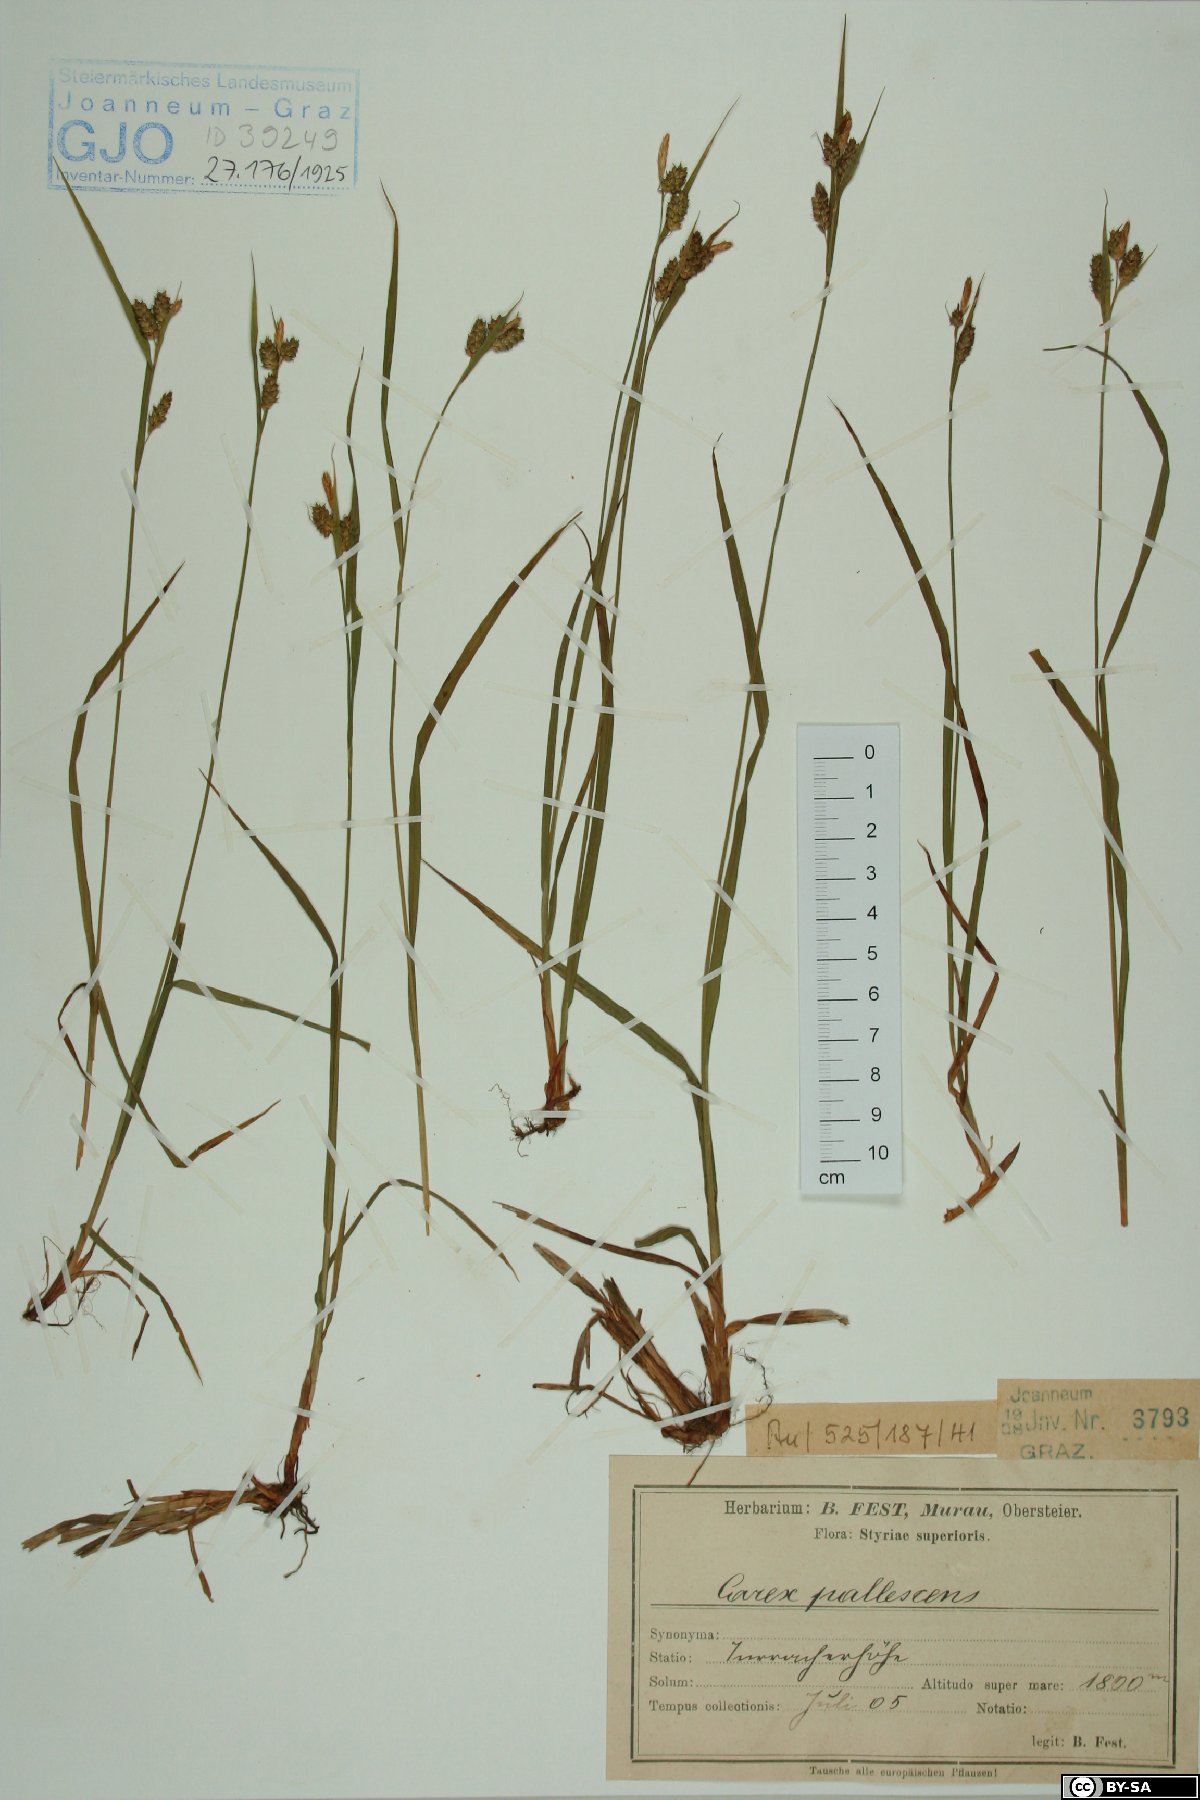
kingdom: Plantae
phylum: Tracheophyta
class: Liliopsida
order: Poales
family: Cyperaceae
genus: Carex
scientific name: Carex pallescens
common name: Pale sedge
